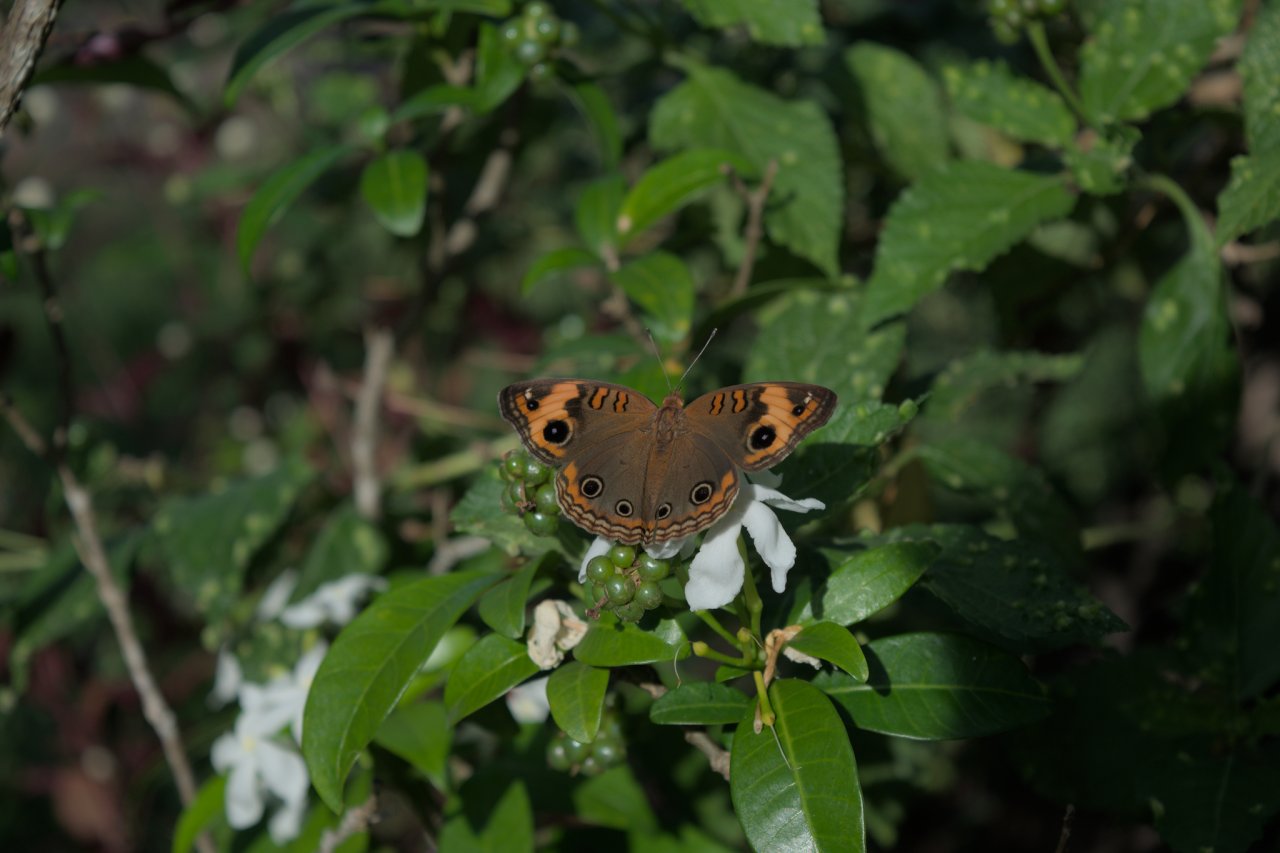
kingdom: Animalia
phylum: Arthropoda
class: Insecta
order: Lepidoptera
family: Nymphalidae
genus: Junonia
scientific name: Junonia
